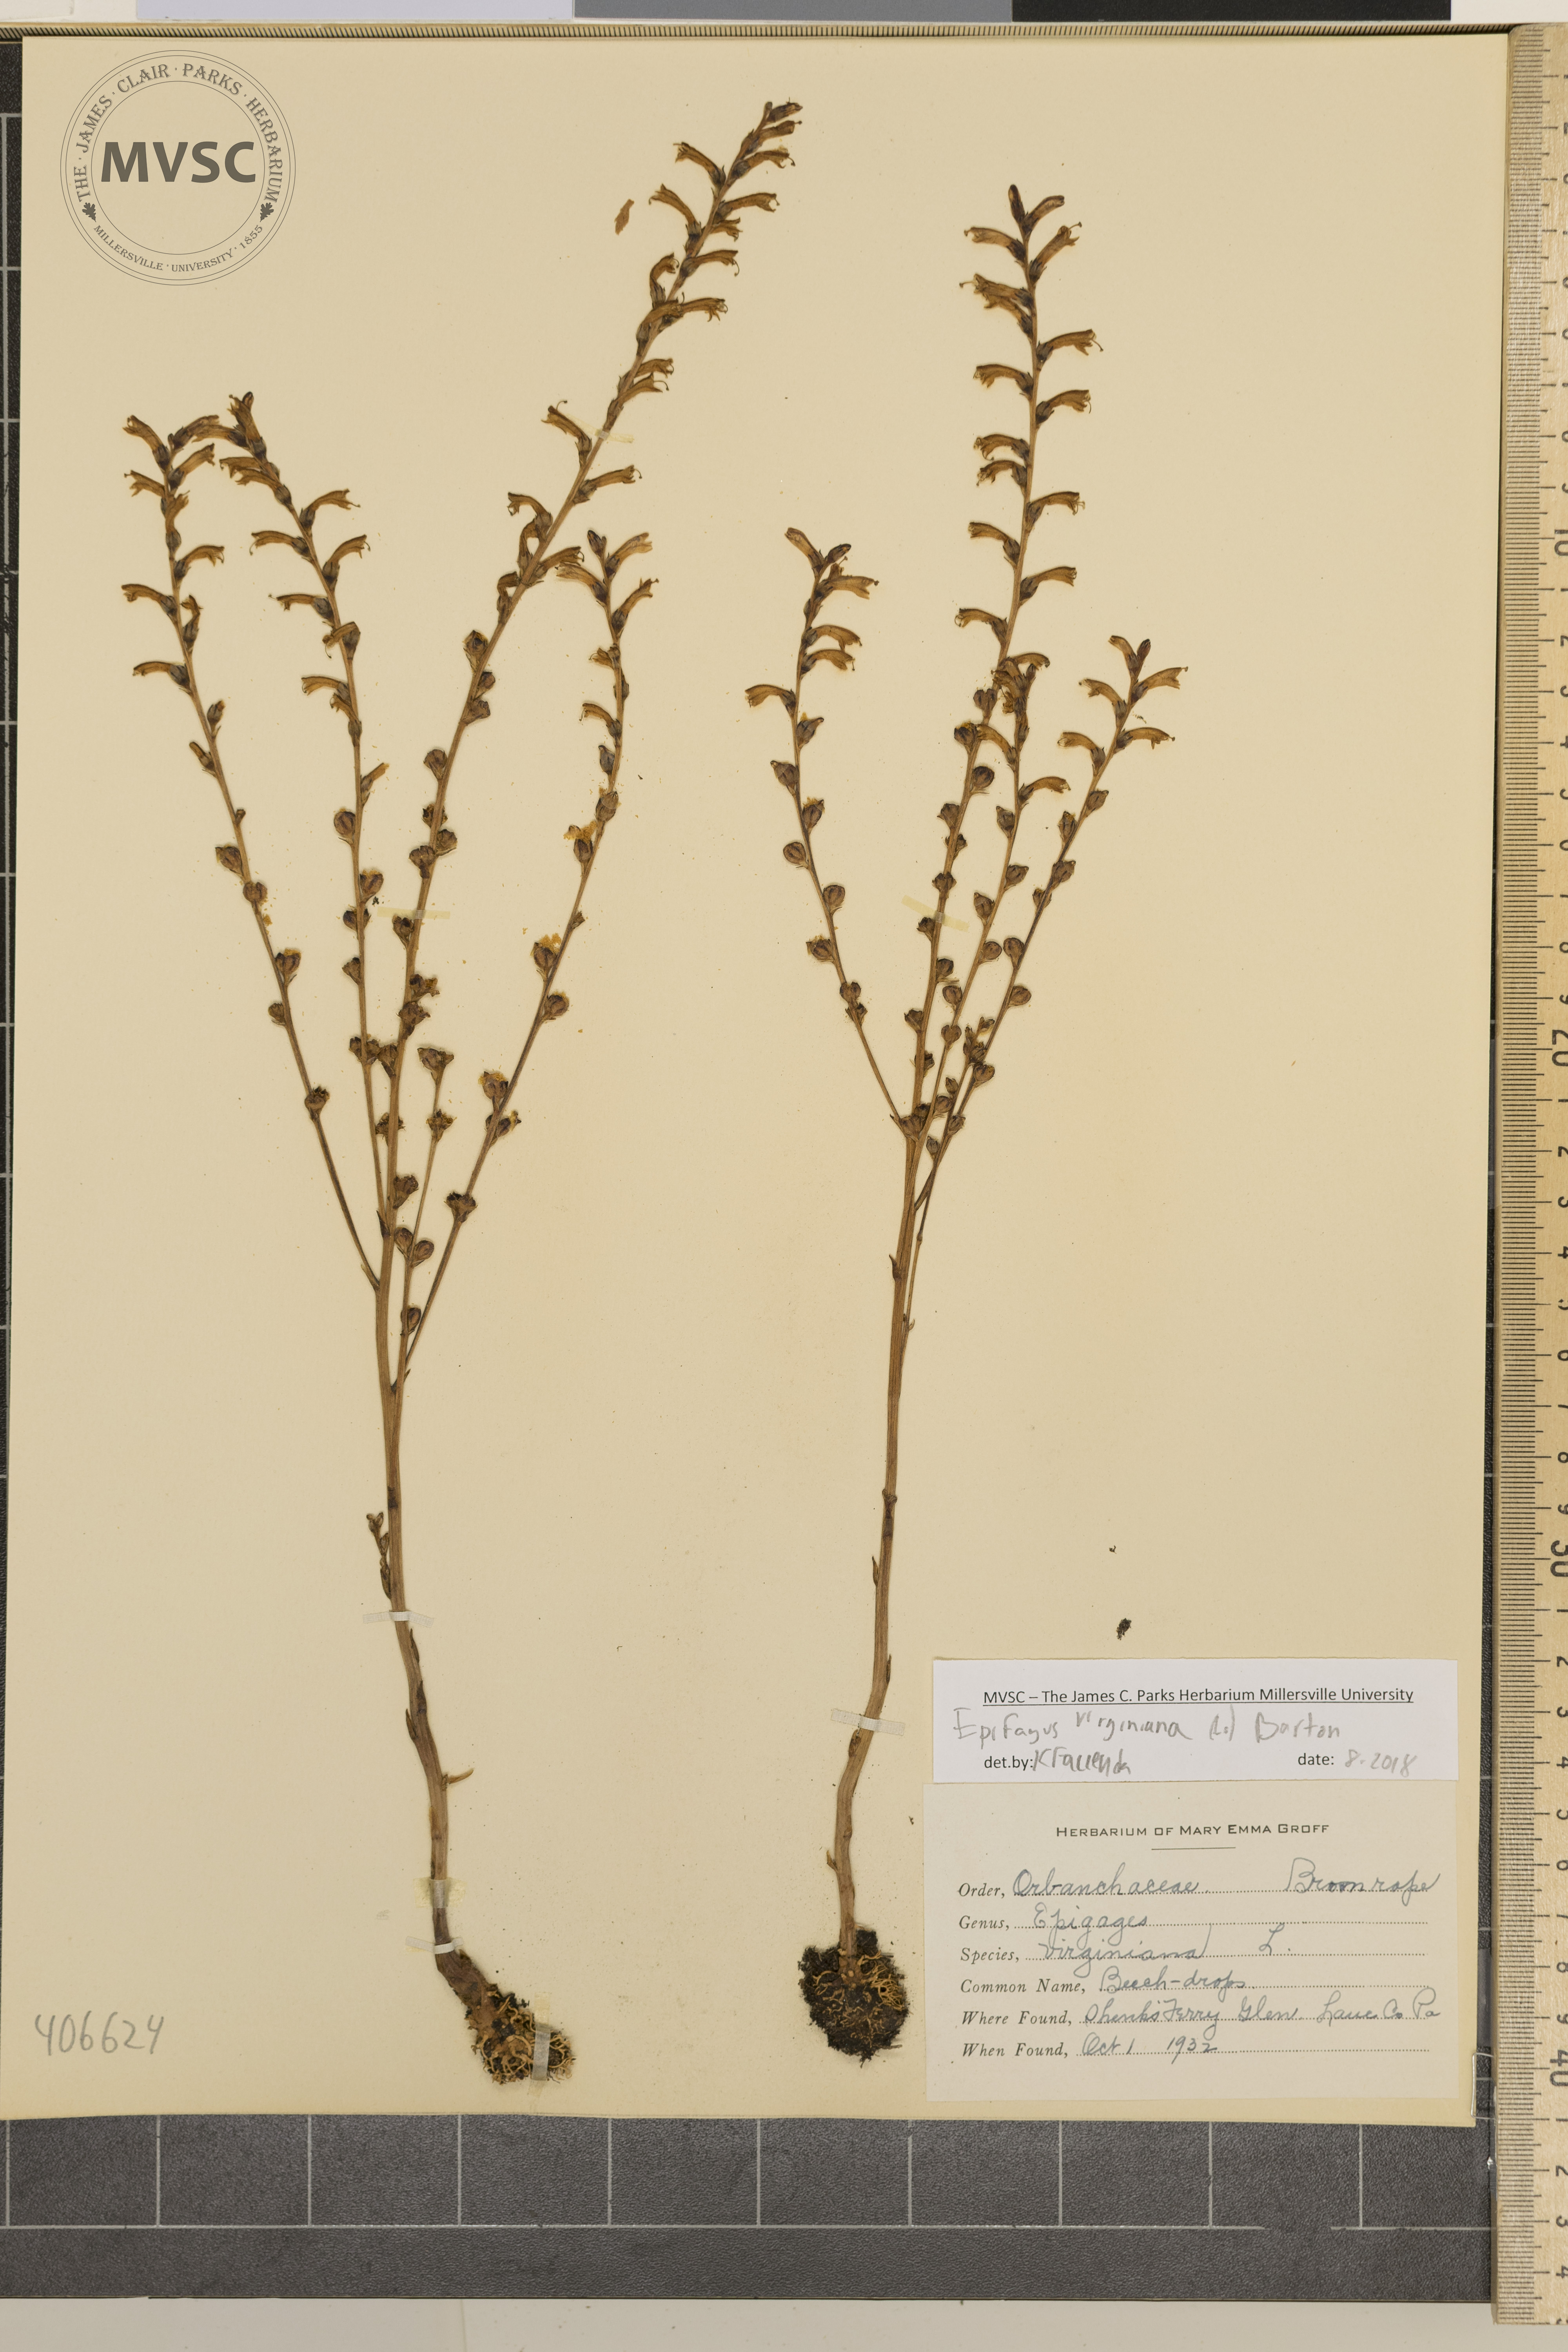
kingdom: Plantae
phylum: Tracheophyta
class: Magnoliopsida
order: Lamiales
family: Orobanchaceae
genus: Epifagus
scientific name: Epifagus virginiana
